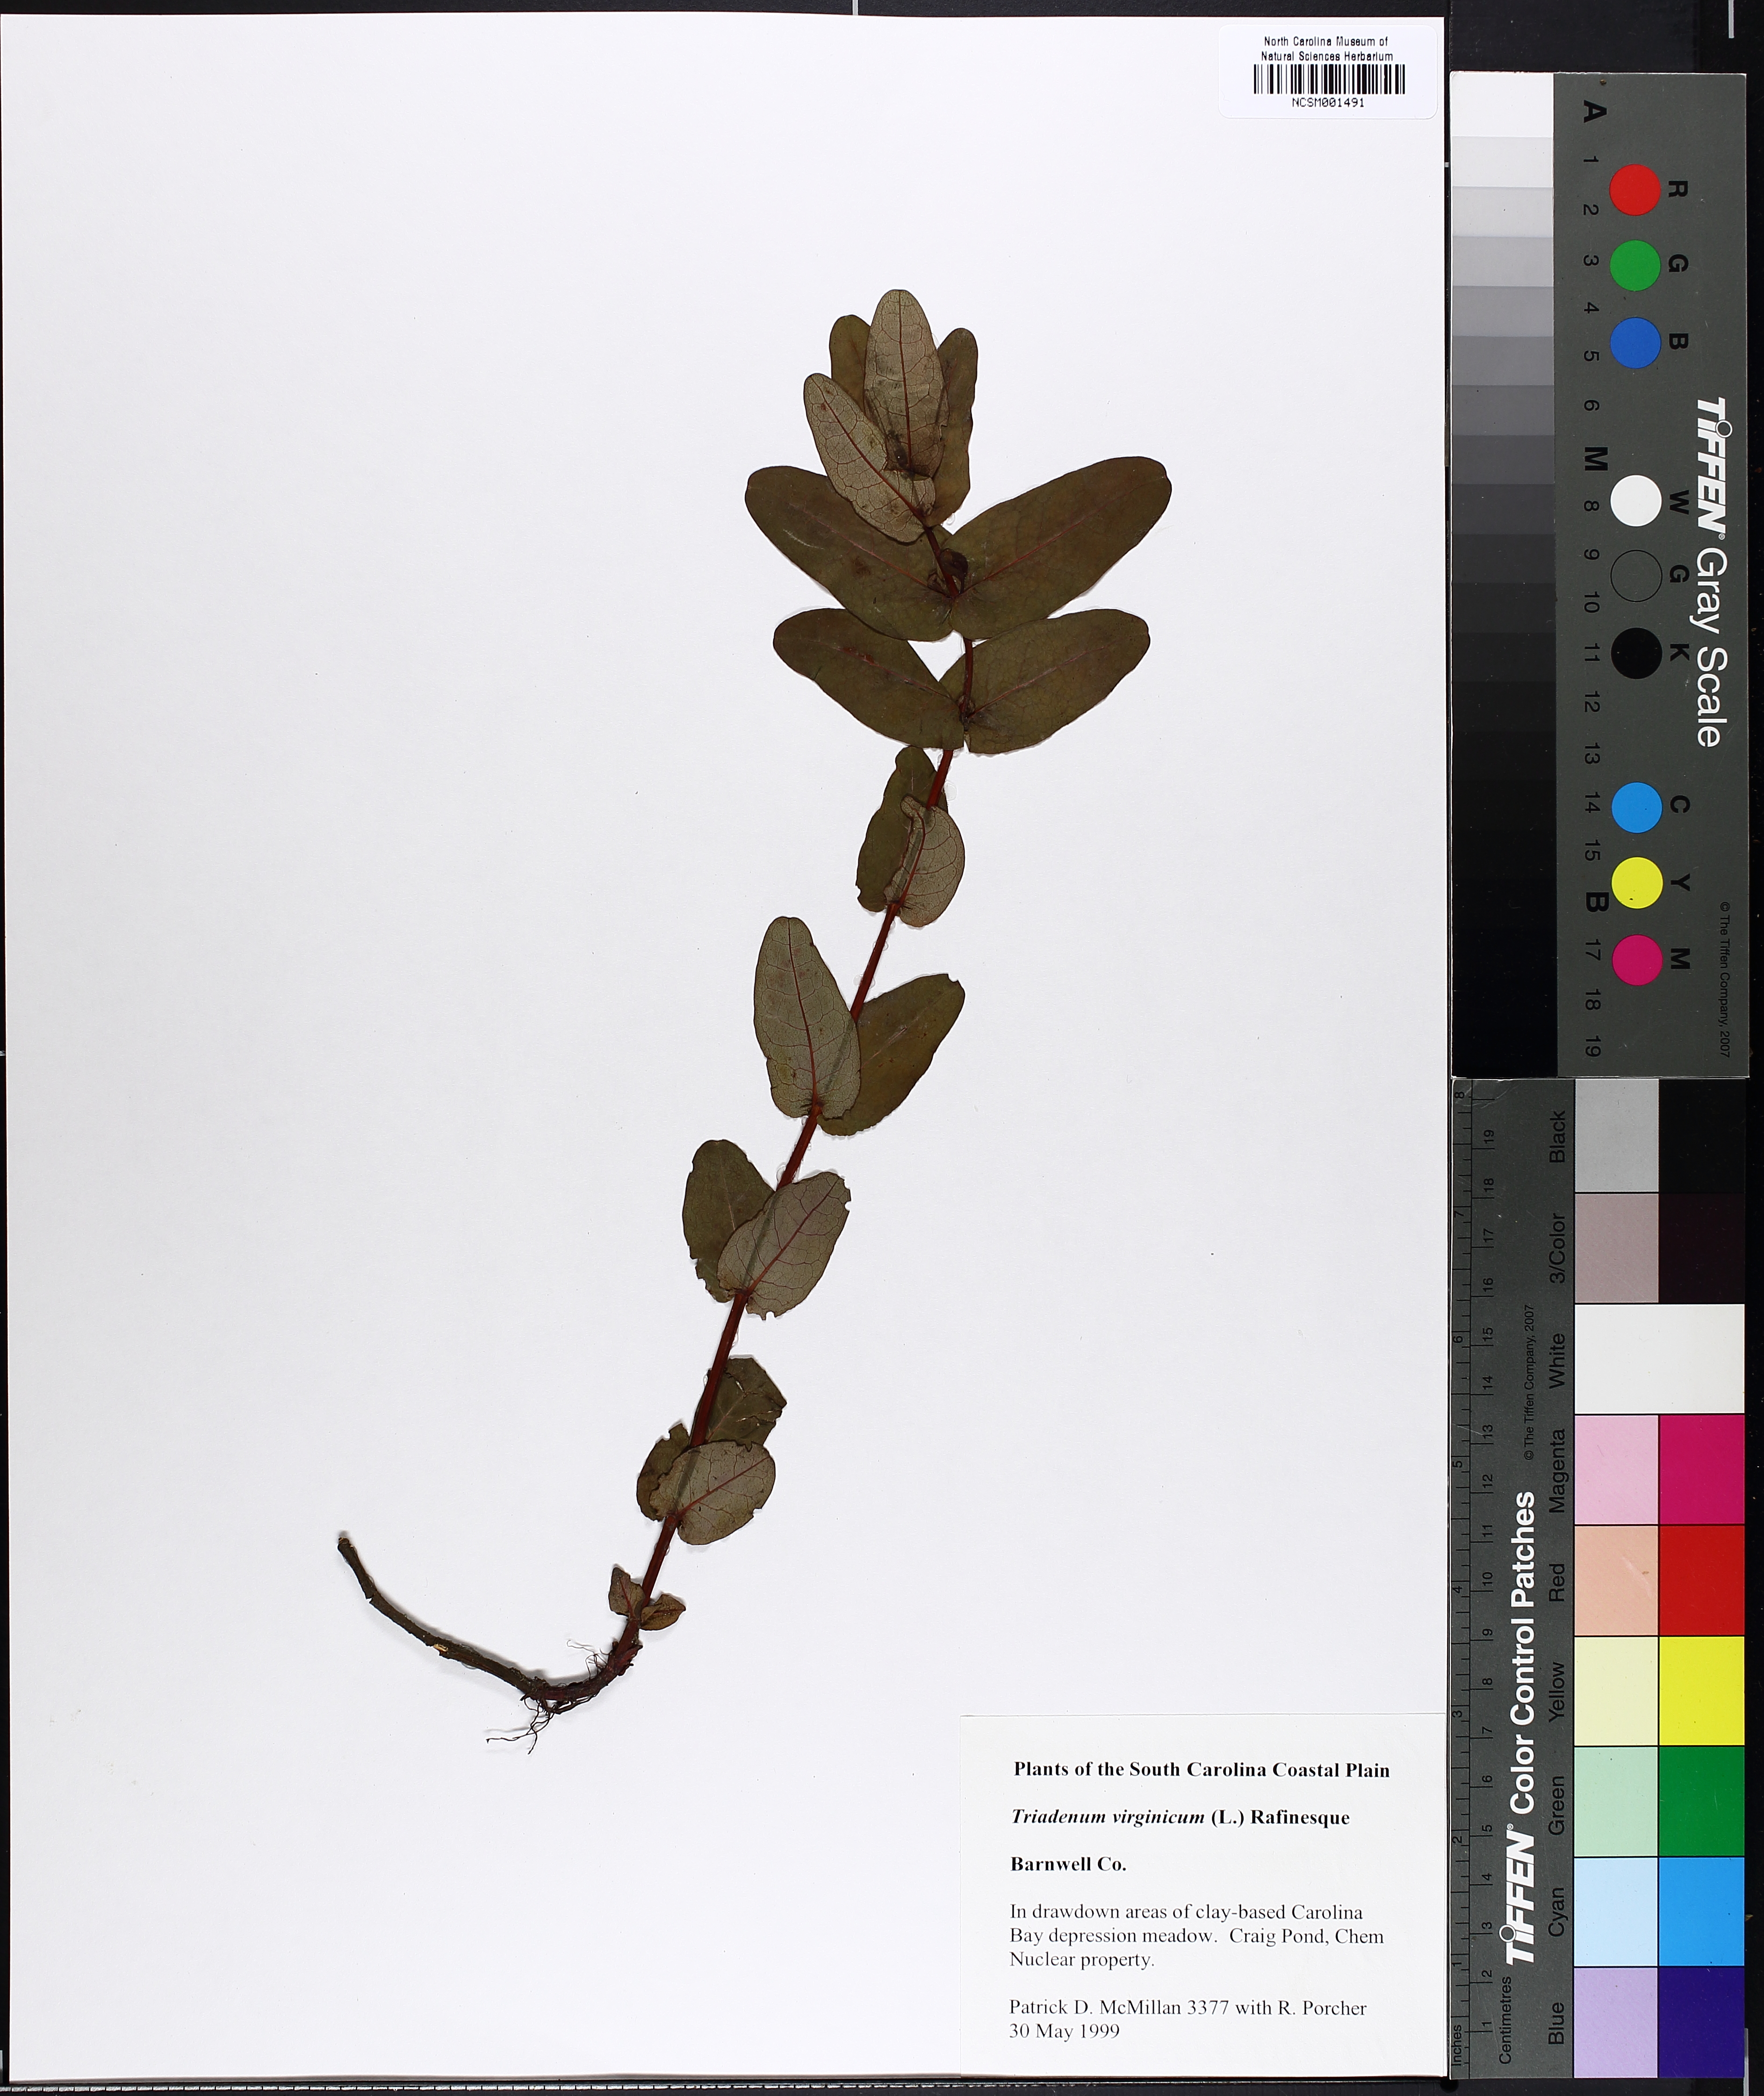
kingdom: Plantae
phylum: Tracheophyta
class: Magnoliopsida
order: Malpighiales
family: Hypericaceae
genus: Triadenum
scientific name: Triadenum virginicum
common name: Marsh st. john's-wort
